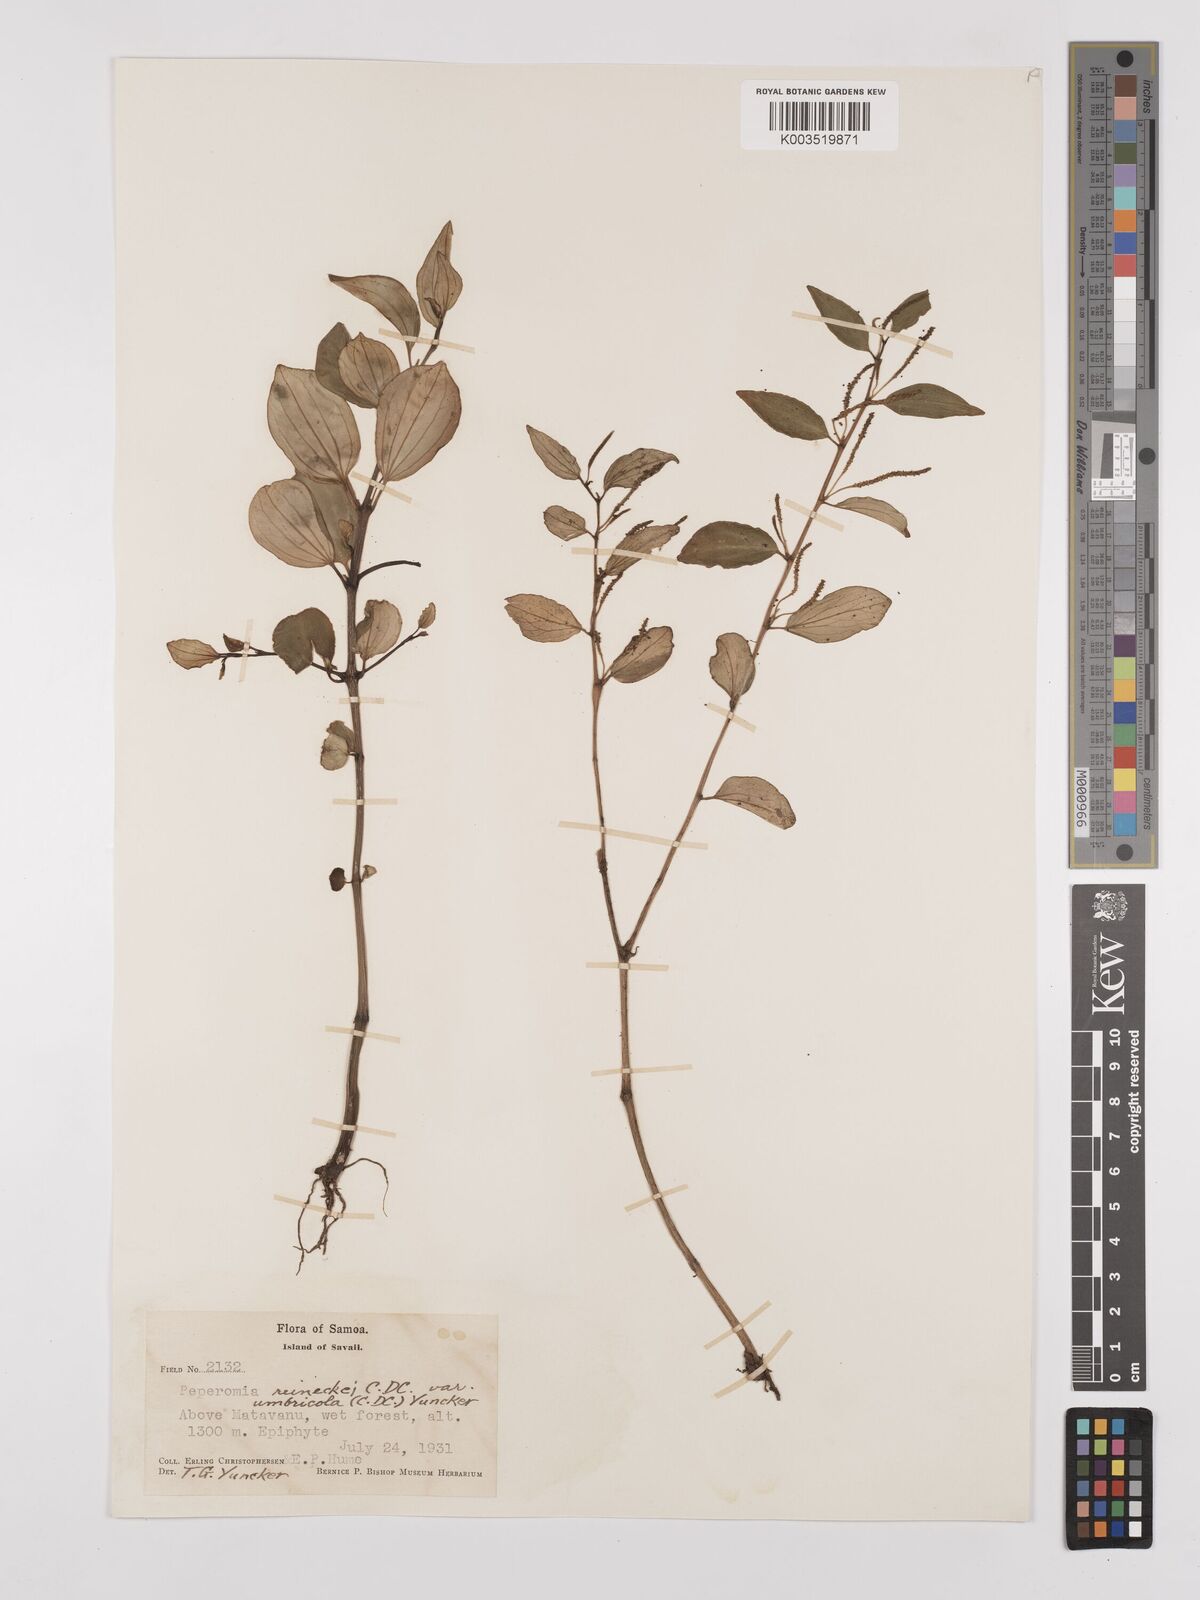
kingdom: Plantae
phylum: Tracheophyta
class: Magnoliopsida
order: Piperales
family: Piperaceae
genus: Peperomia
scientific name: Peperomia reineckei
